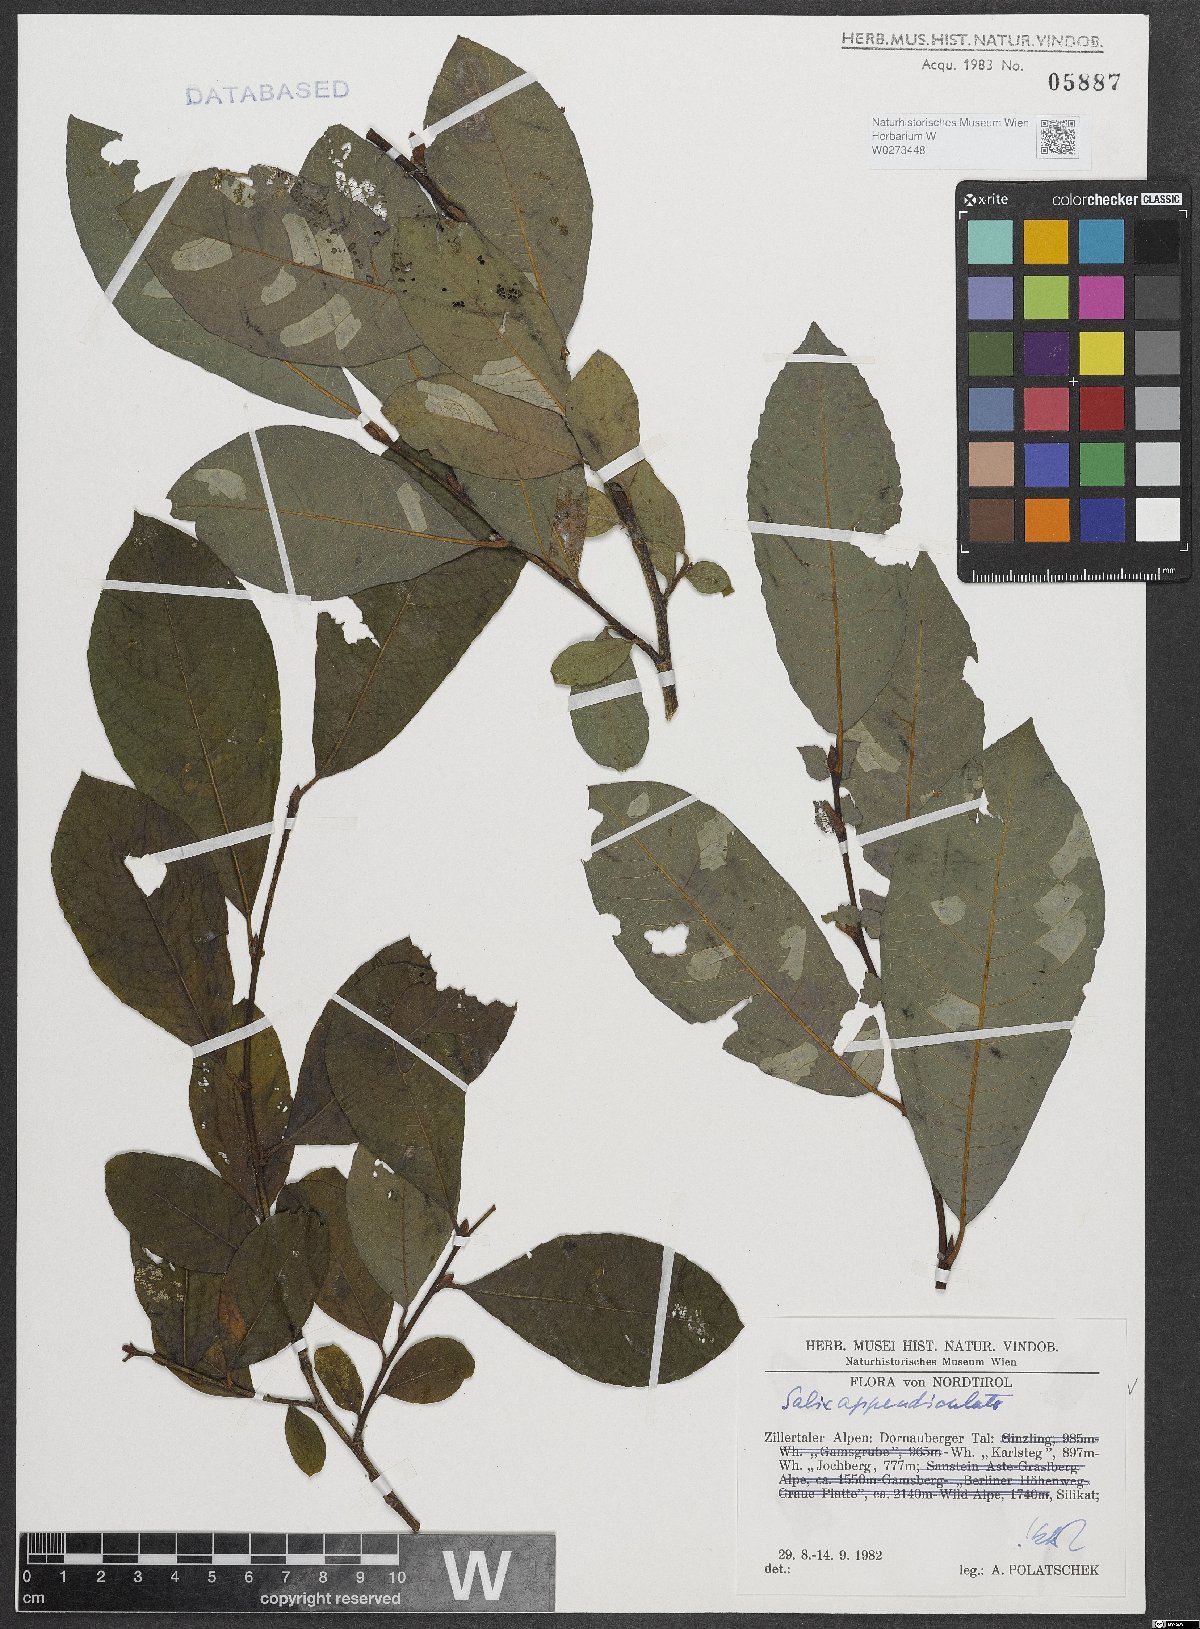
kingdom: Plantae
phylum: Tracheophyta
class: Magnoliopsida
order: Malpighiales
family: Salicaceae
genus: Salix
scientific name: Salix appendiculata
